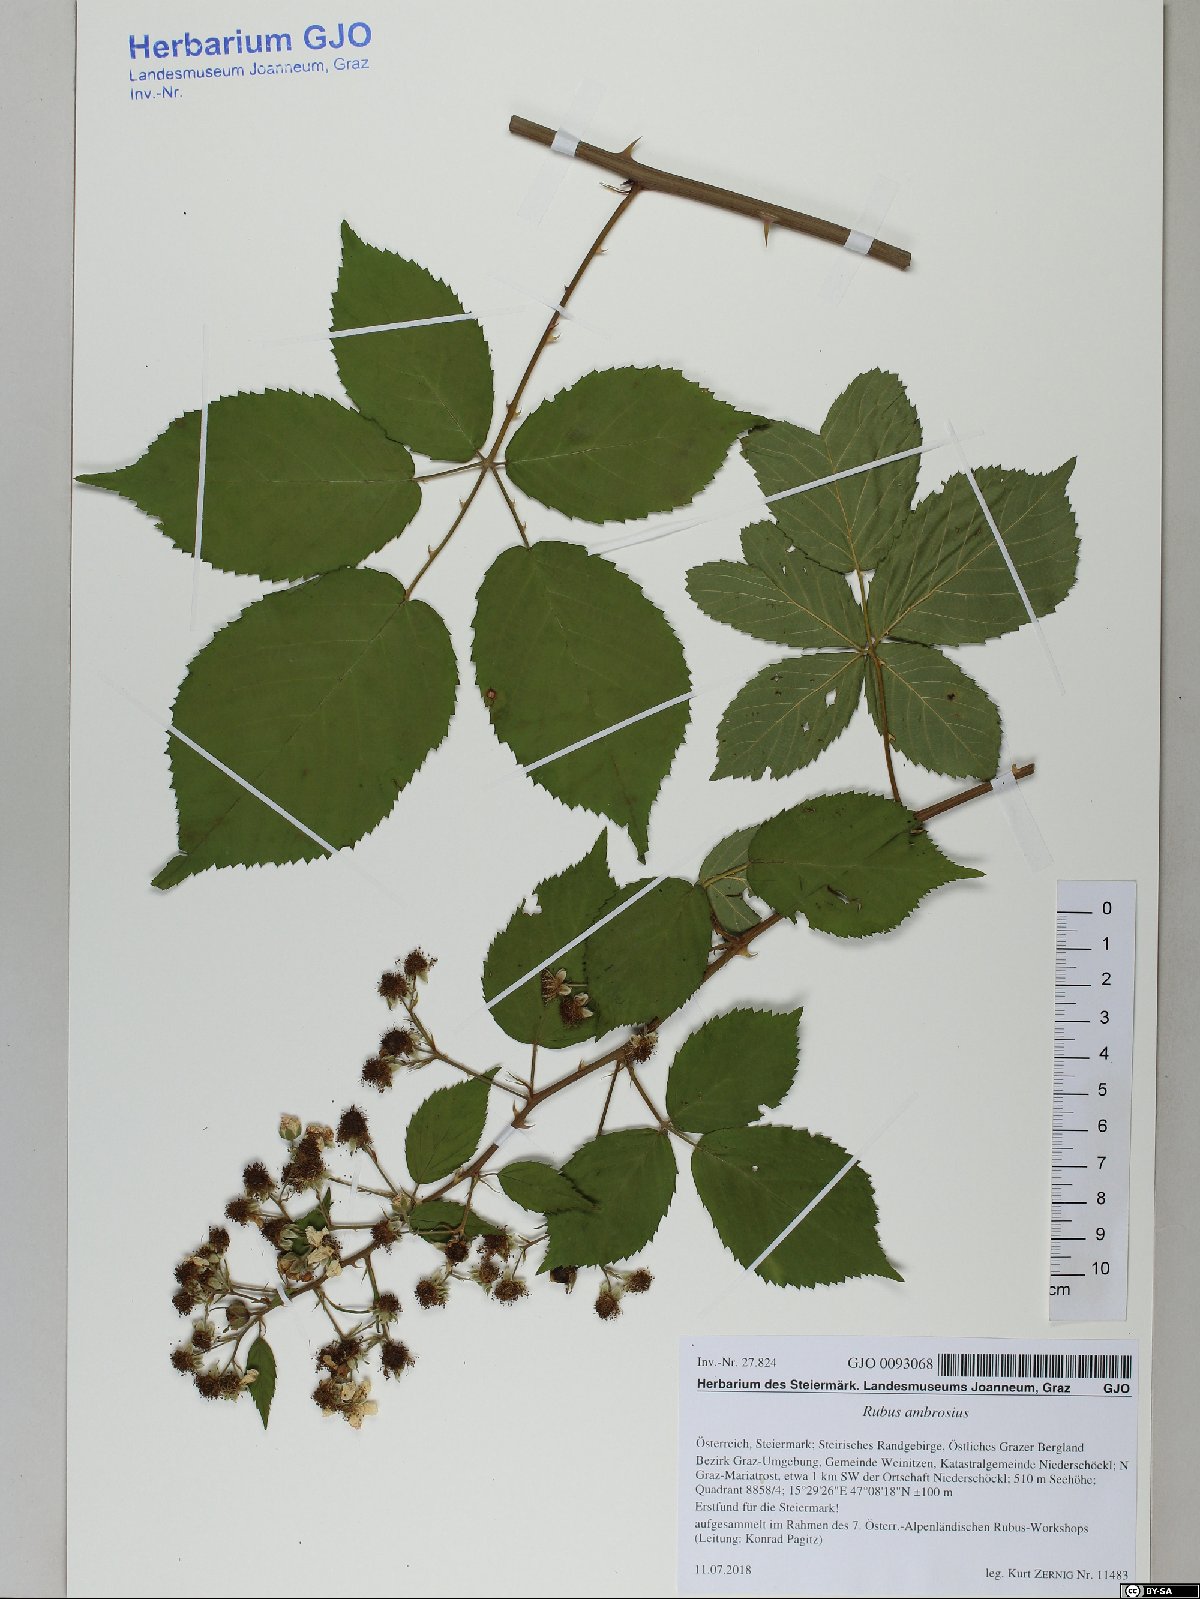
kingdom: Plantae
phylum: Tracheophyta
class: Magnoliopsida
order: Rosales
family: Rosaceae
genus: Rubus
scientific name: Rubus ambrosius
